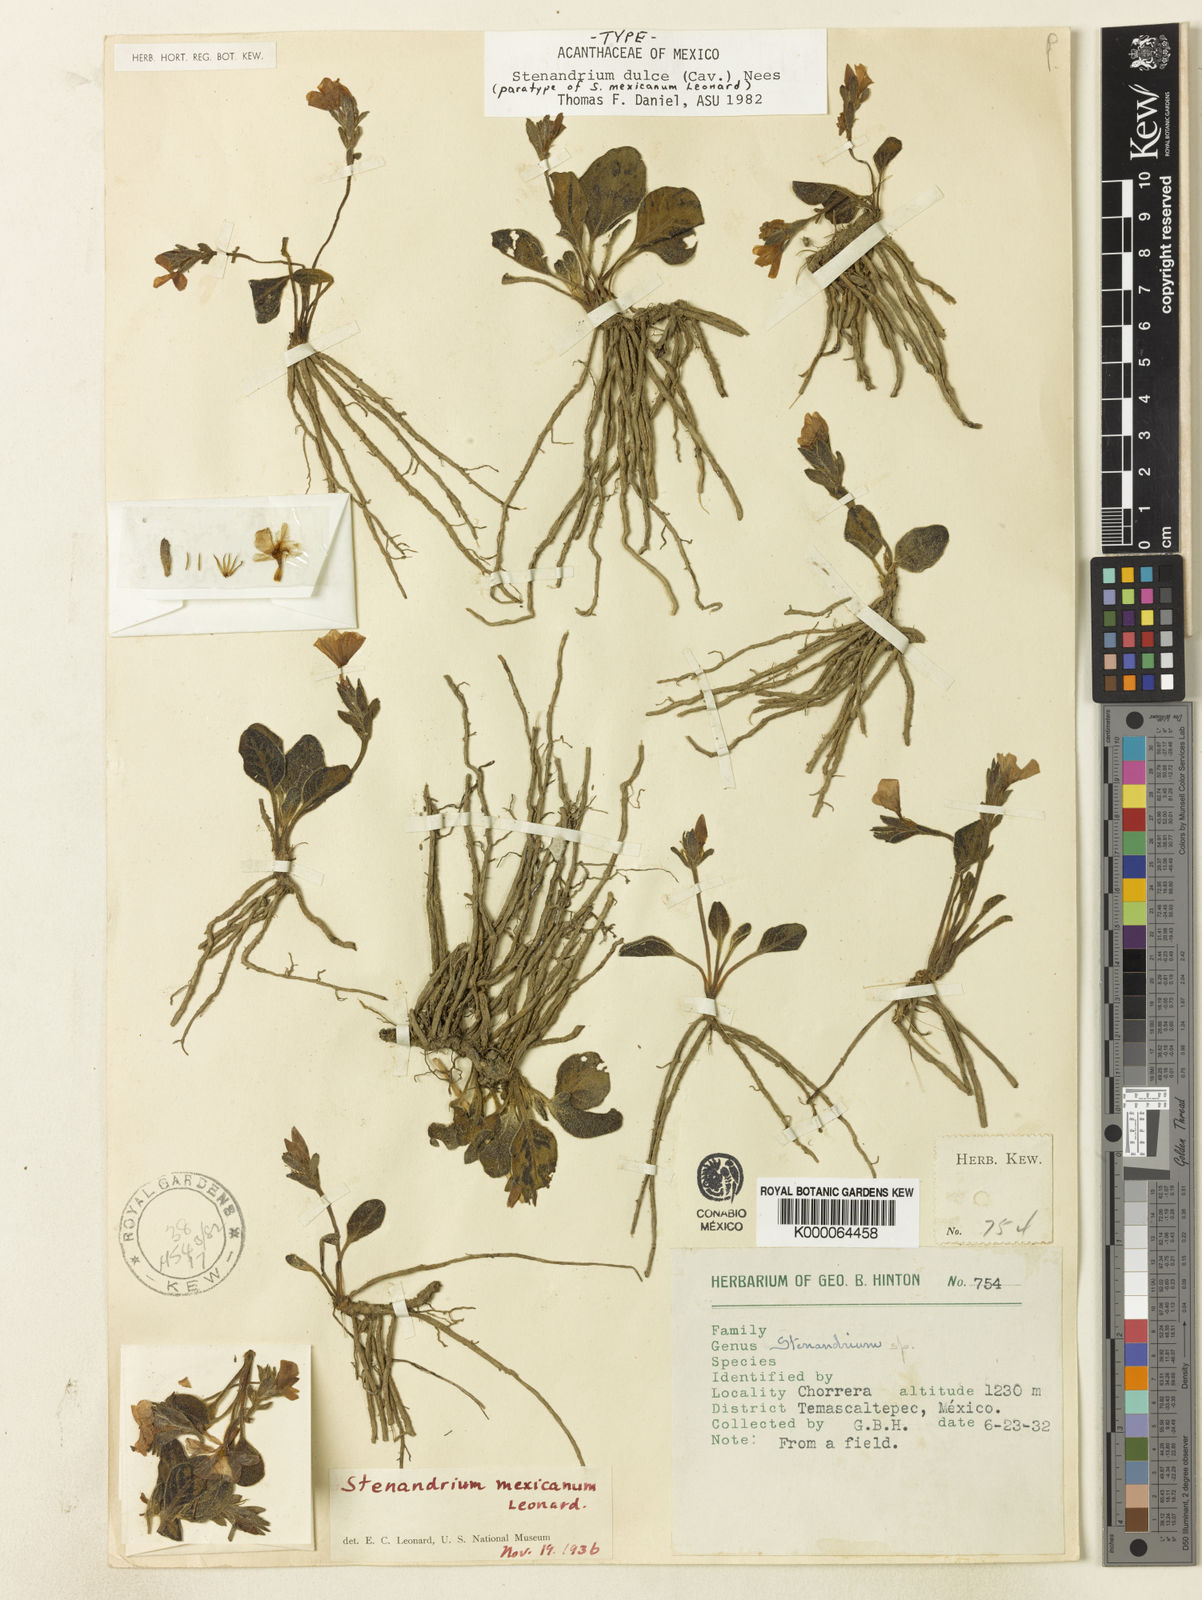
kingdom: Plantae
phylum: Tracheophyta
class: Magnoliopsida
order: Lamiales
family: Acanthaceae
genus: Stenandrium
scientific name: Stenandrium dulce
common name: Pinklet
